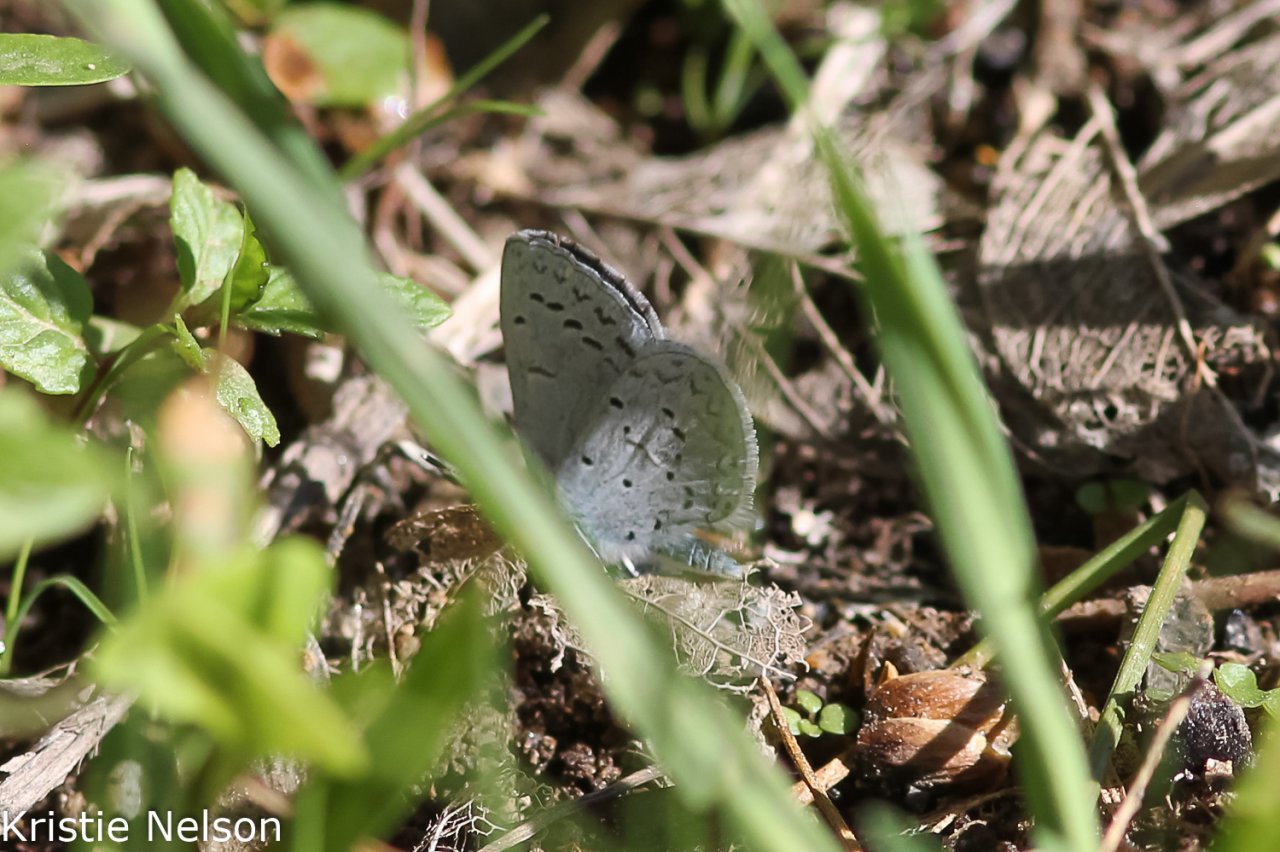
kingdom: Animalia
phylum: Arthropoda
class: Insecta
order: Lepidoptera
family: Lycaenidae
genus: Celastrina
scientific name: Celastrina ladon
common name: Echo Azure
